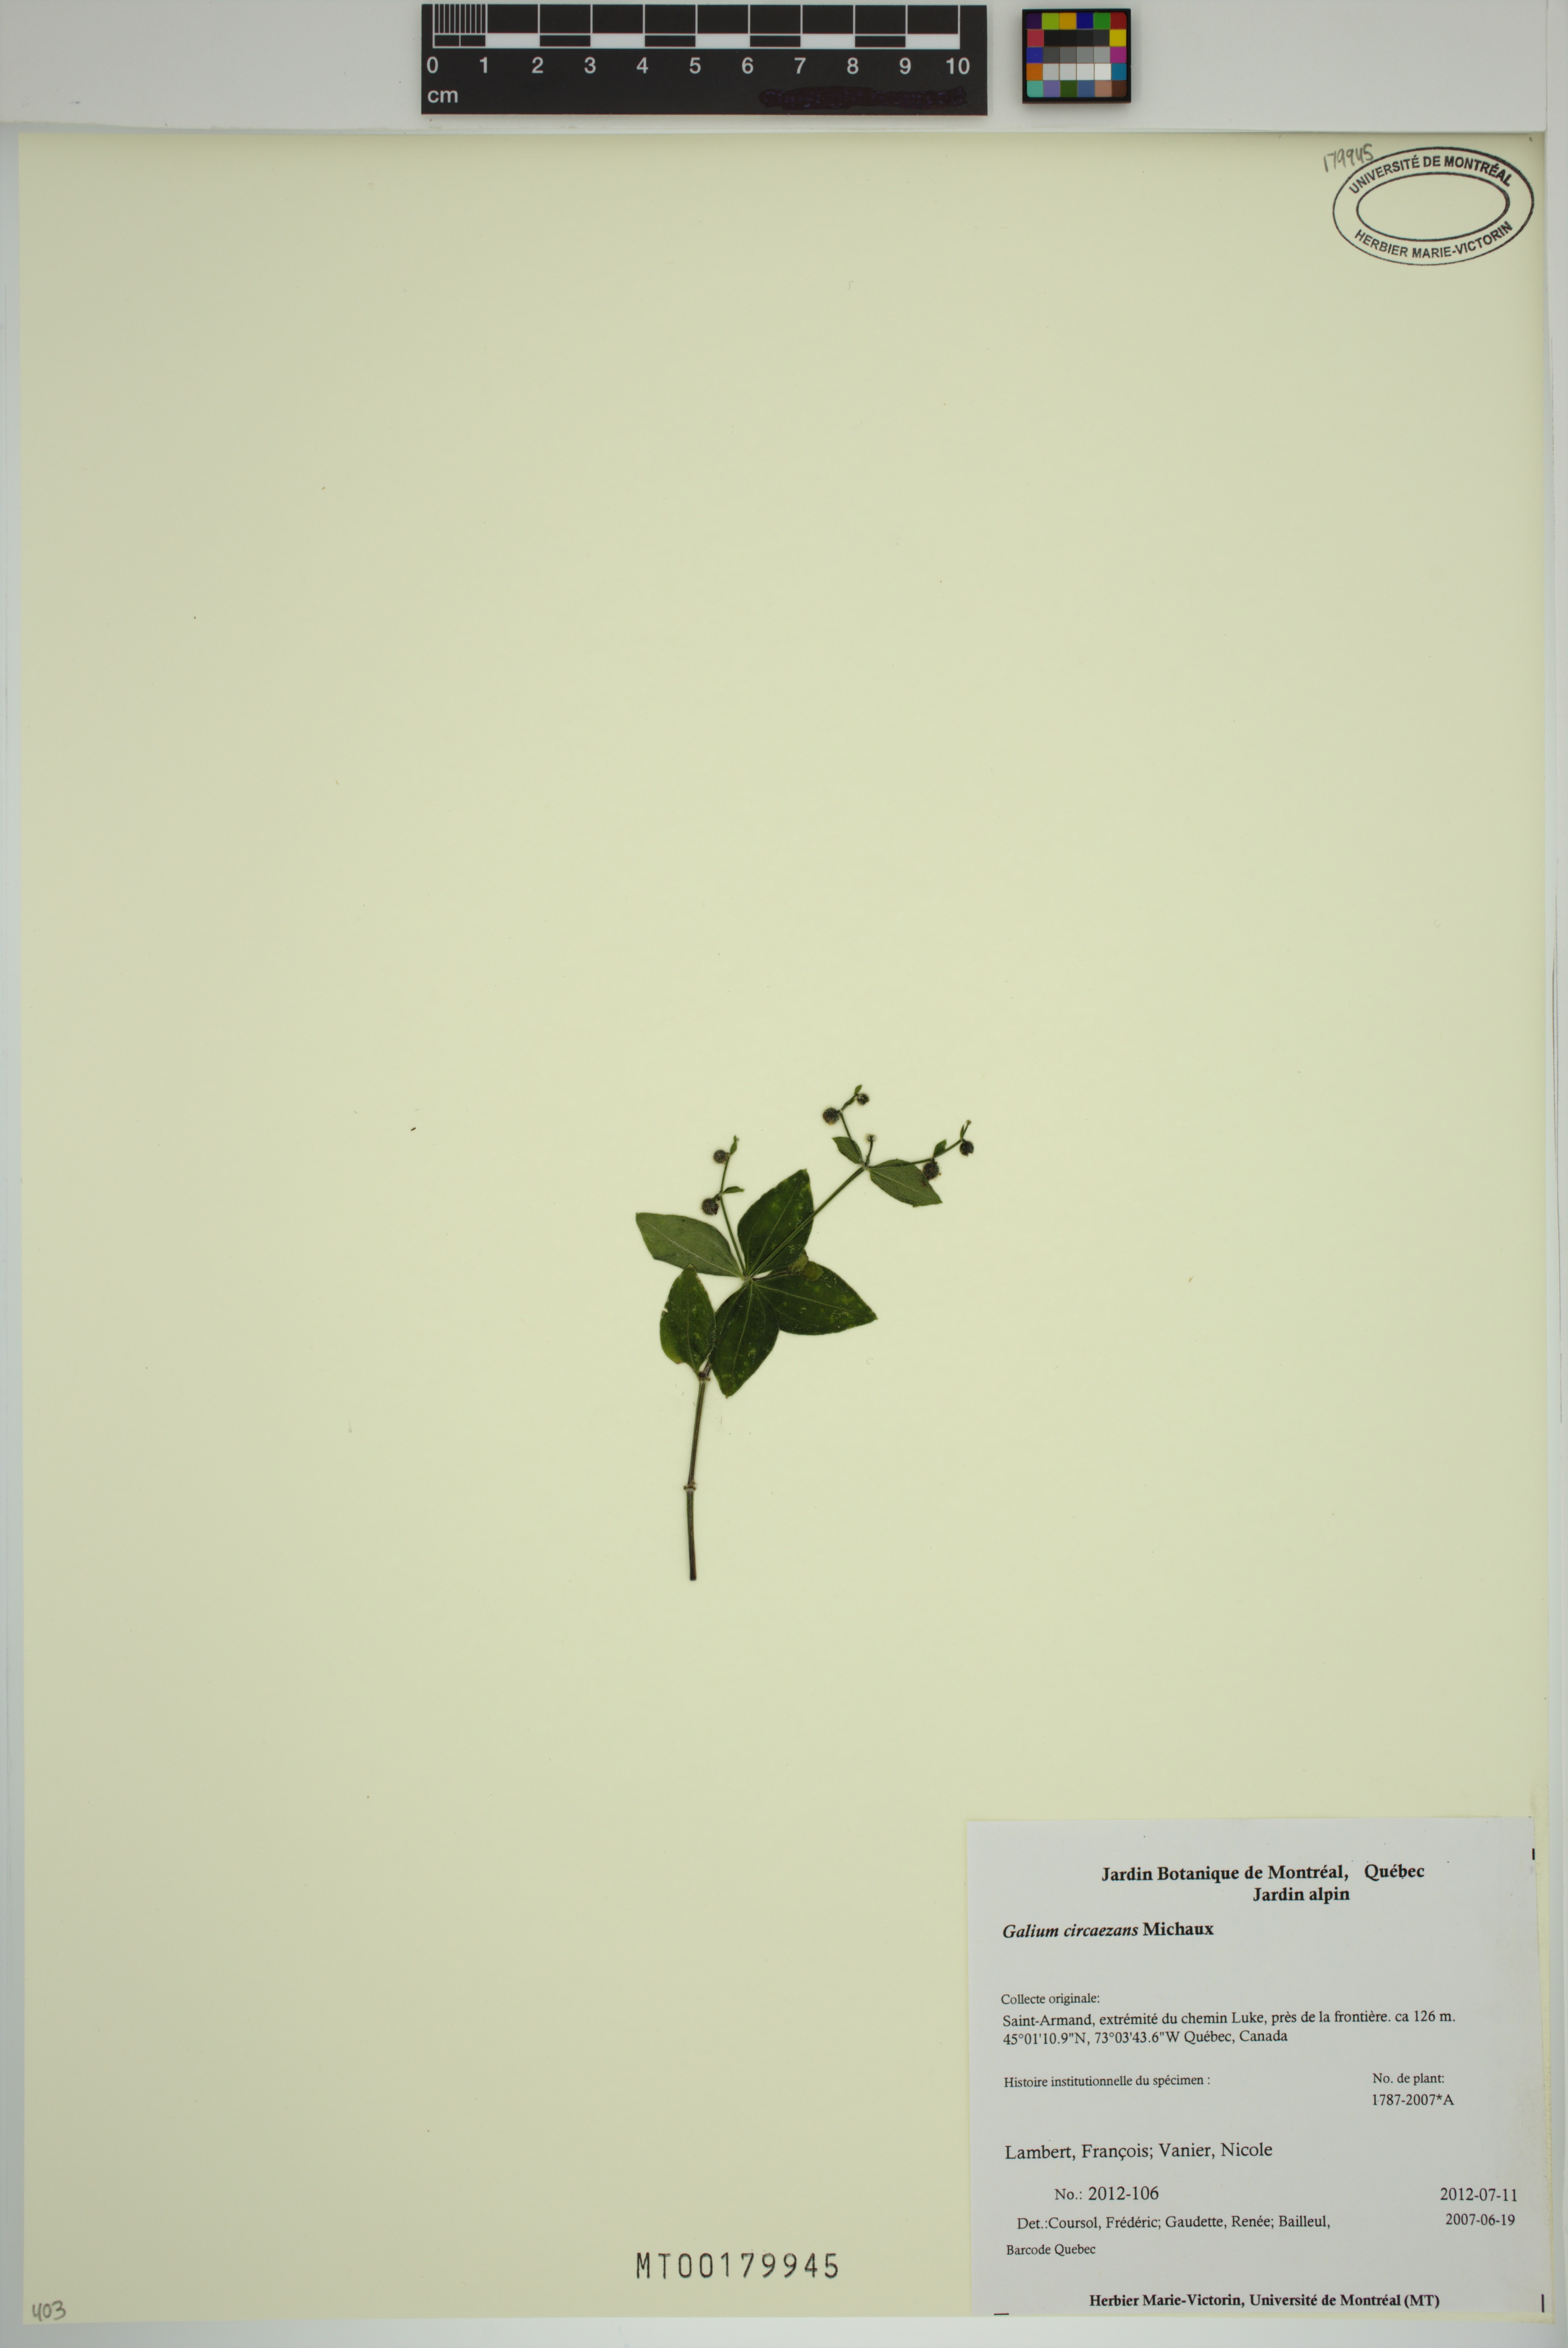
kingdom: Plantae
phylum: Tracheophyta
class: Magnoliopsida
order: Gentianales
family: Rubiaceae
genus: Galium
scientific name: Galium circaezans
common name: Forest bedstraw
